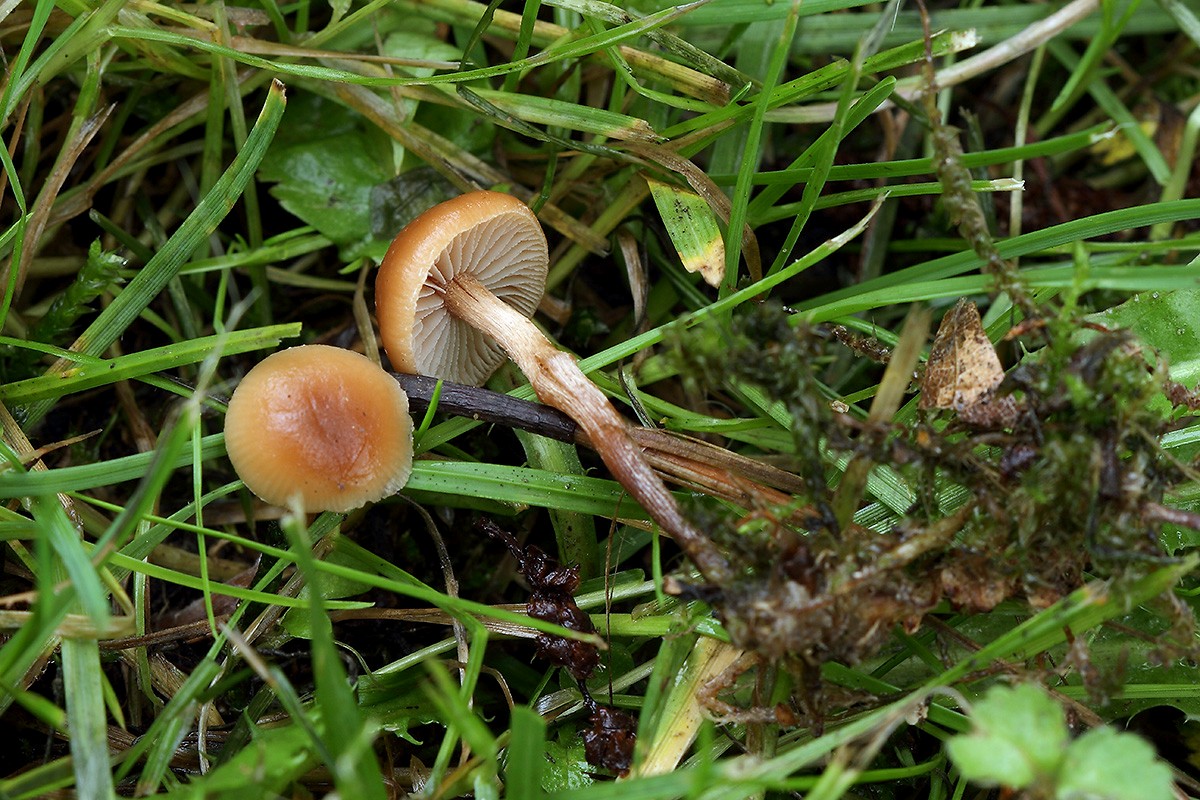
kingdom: Fungi
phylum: Basidiomycota
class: Agaricomycetes
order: Agaricales
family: Strophariaceae
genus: Deconica
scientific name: Deconica inquilina
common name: græs-stråhat
